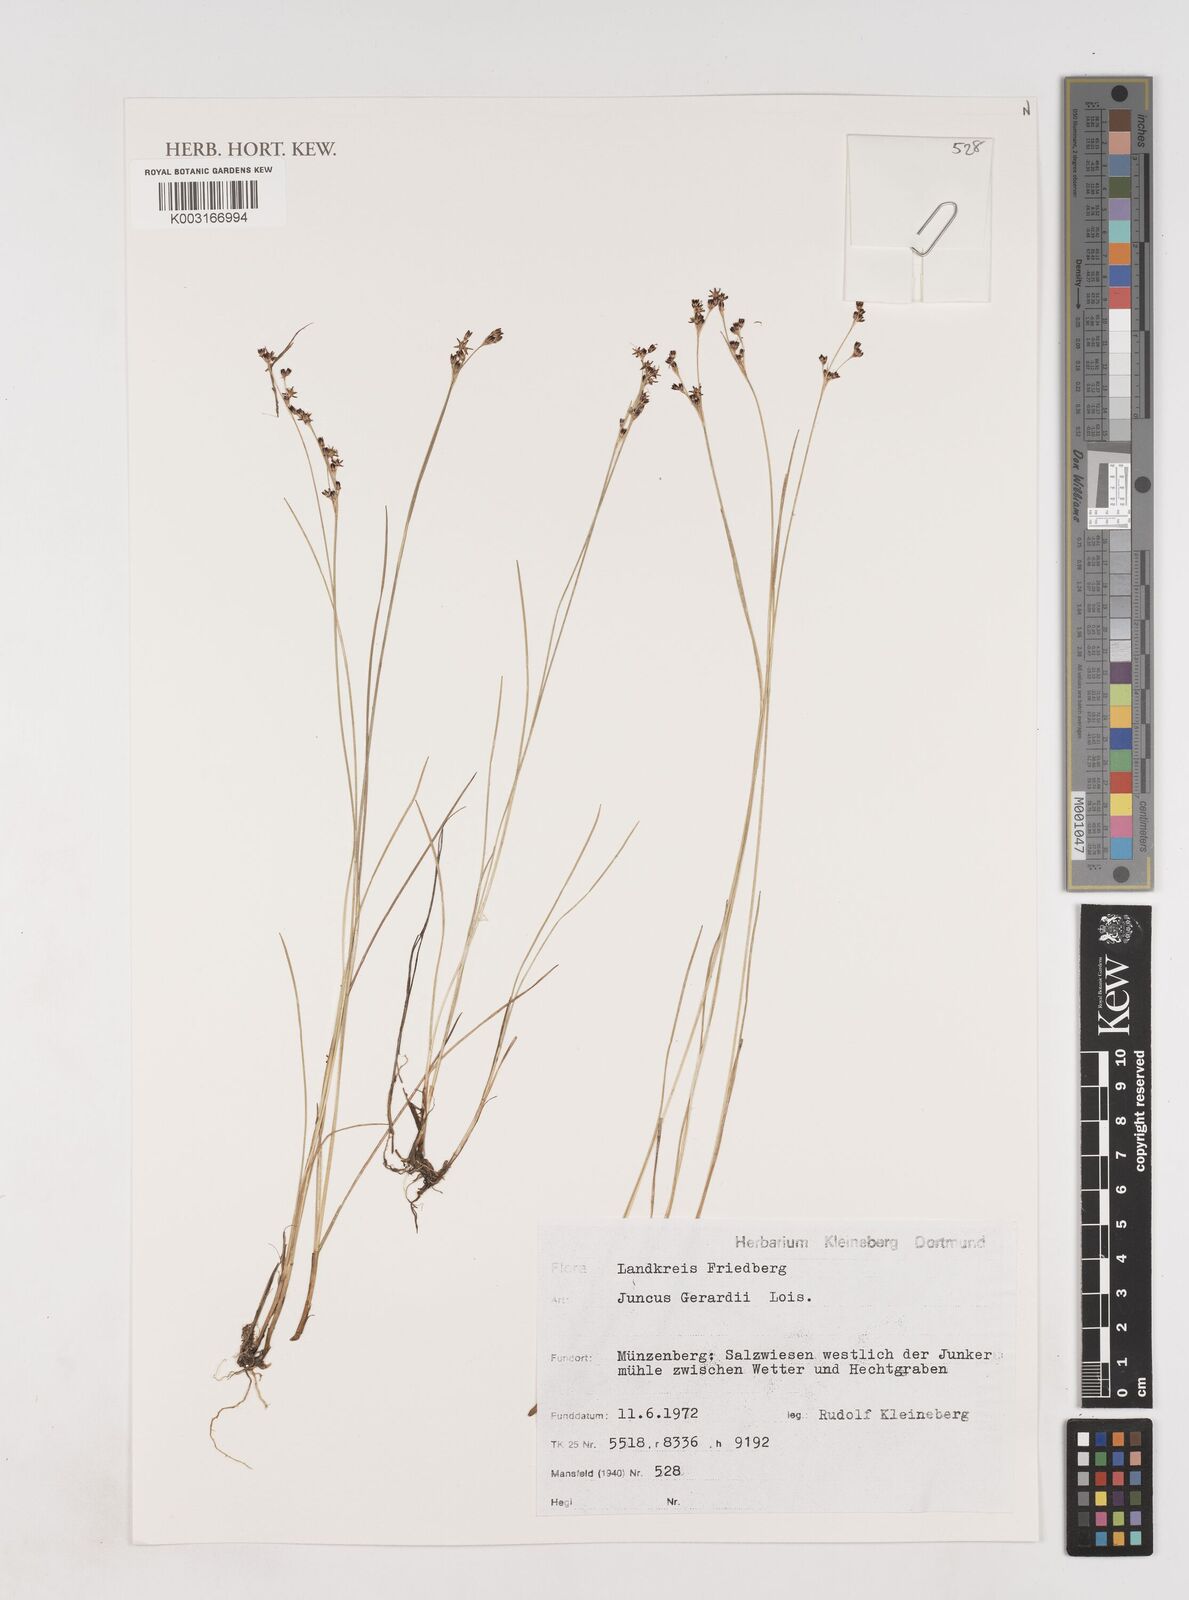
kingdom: Plantae
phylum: Tracheophyta
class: Liliopsida
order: Poales
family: Juncaceae
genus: Juncus
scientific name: Juncus gerardi
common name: Saltmarsh rush
